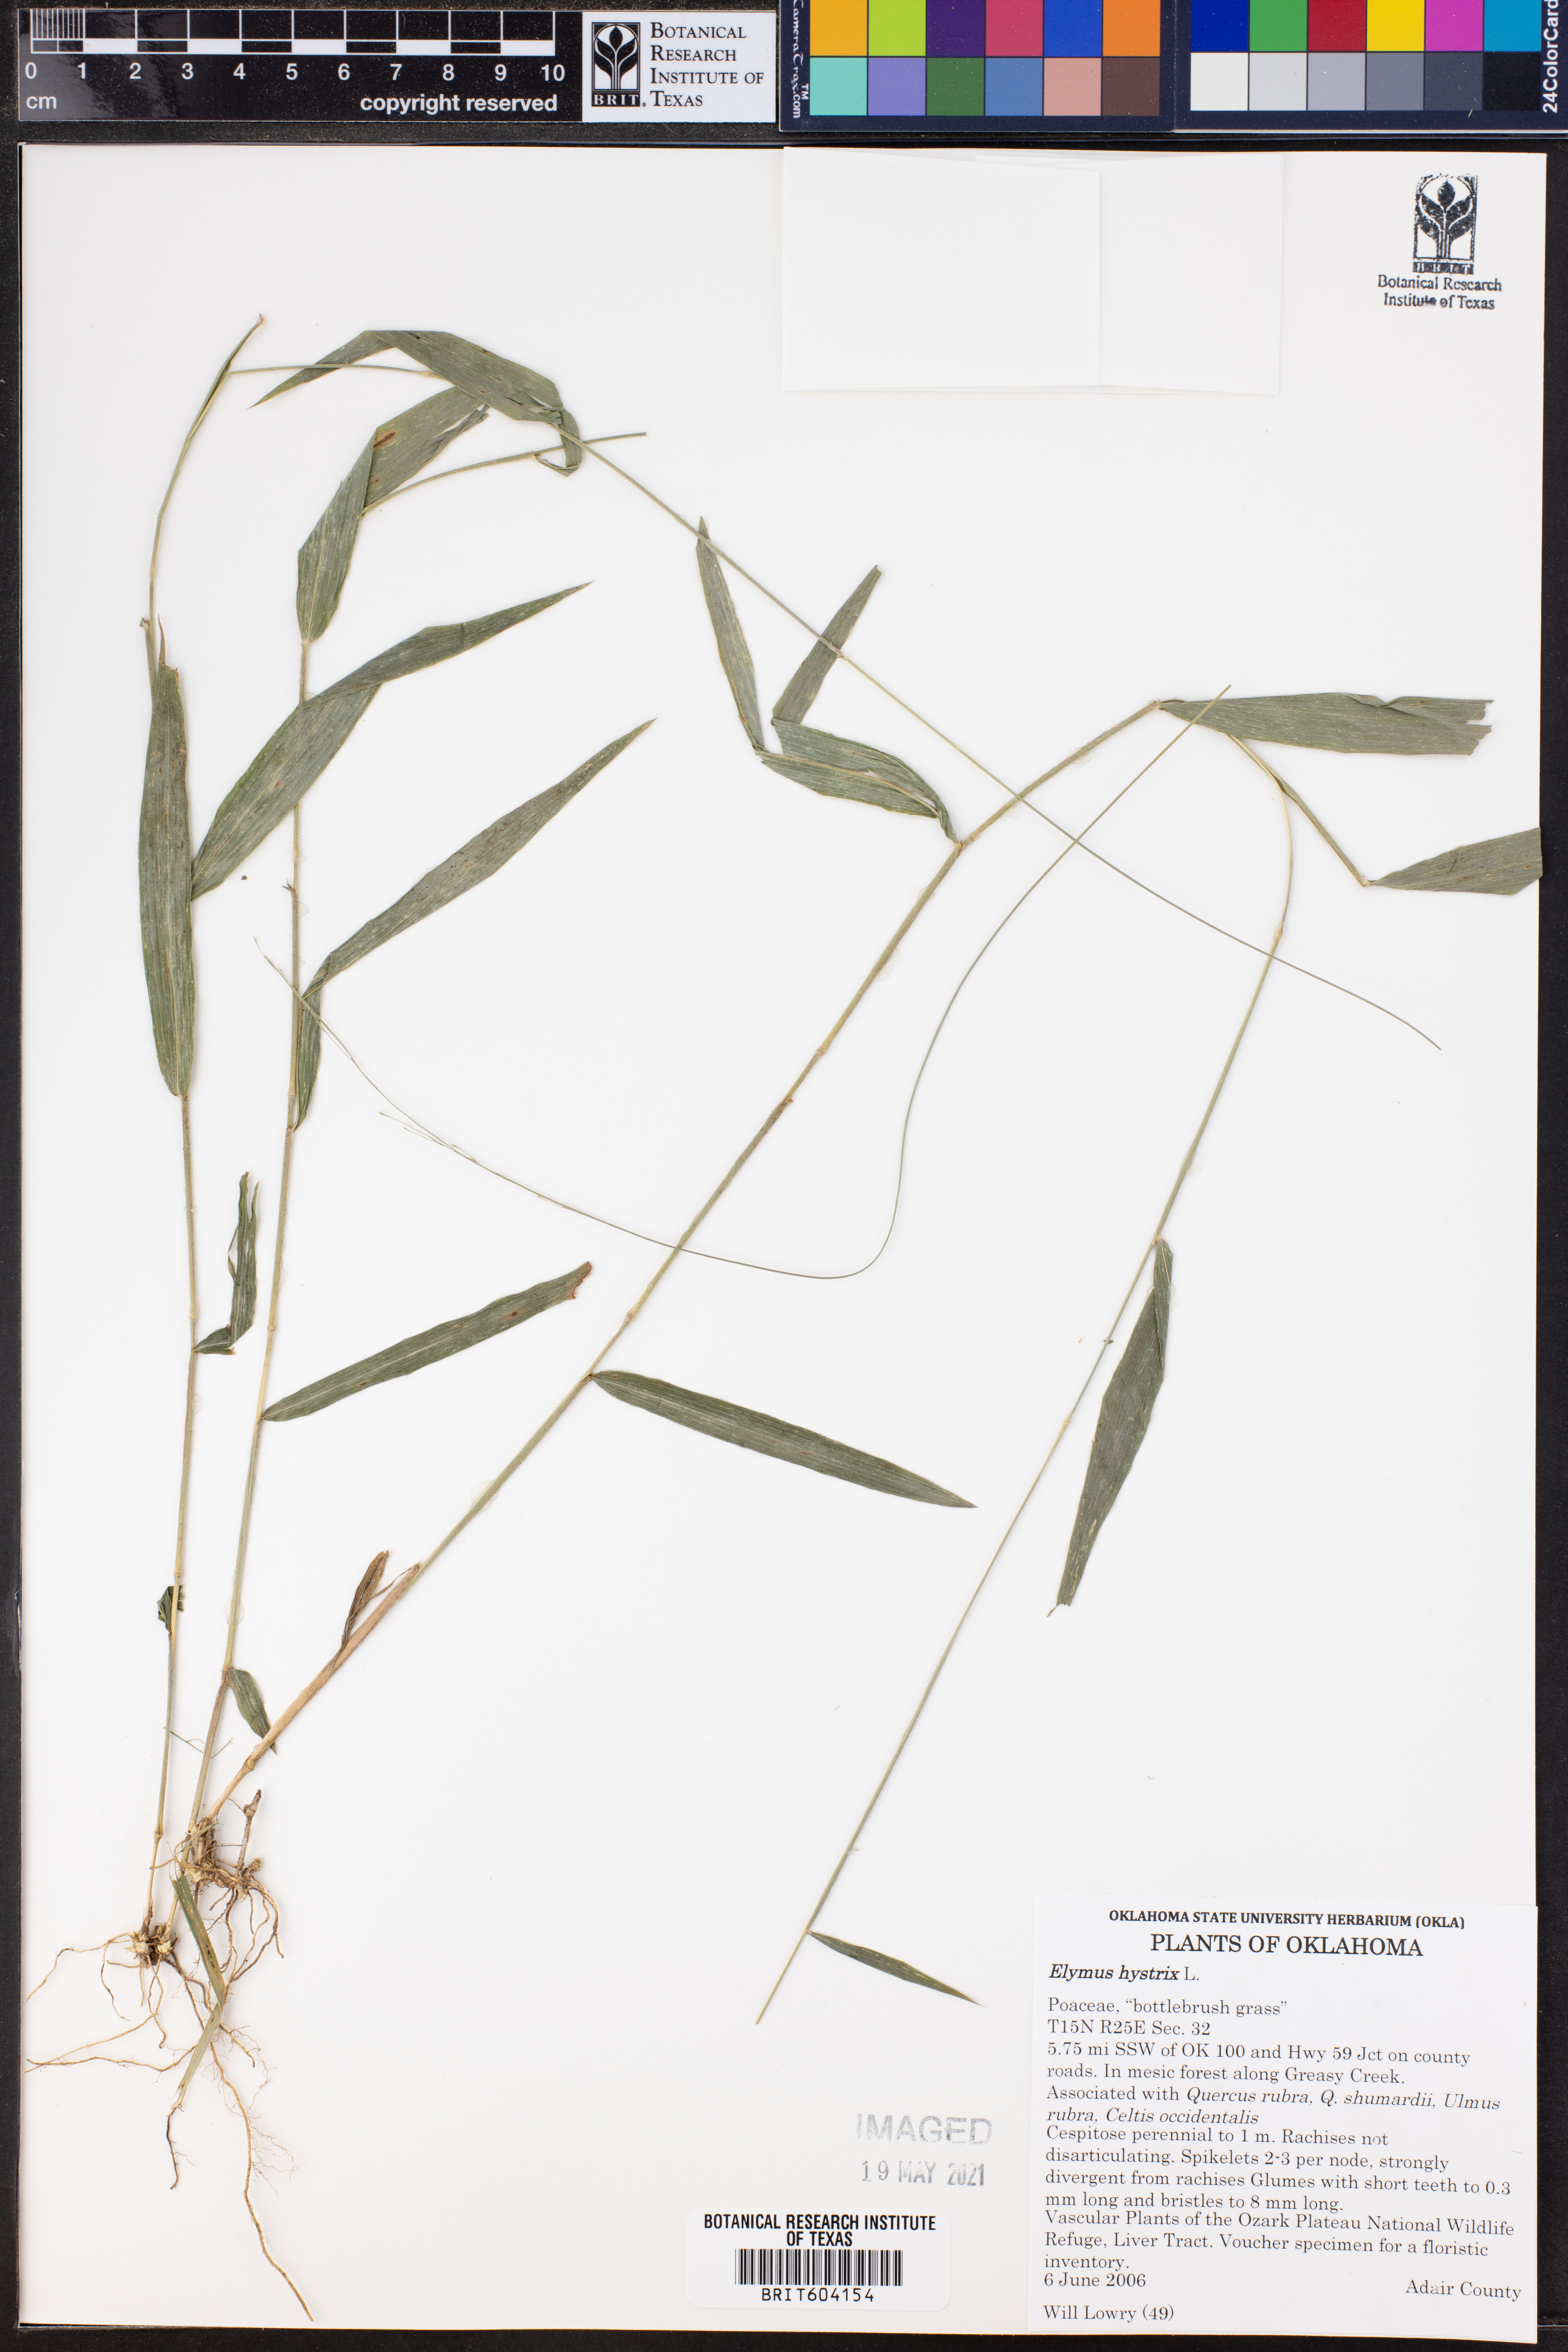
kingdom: Plantae
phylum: Tracheophyta
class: Liliopsida
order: Poales
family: Poaceae
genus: Elymus
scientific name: Elymus hystrix
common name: Bottlebrush grass
